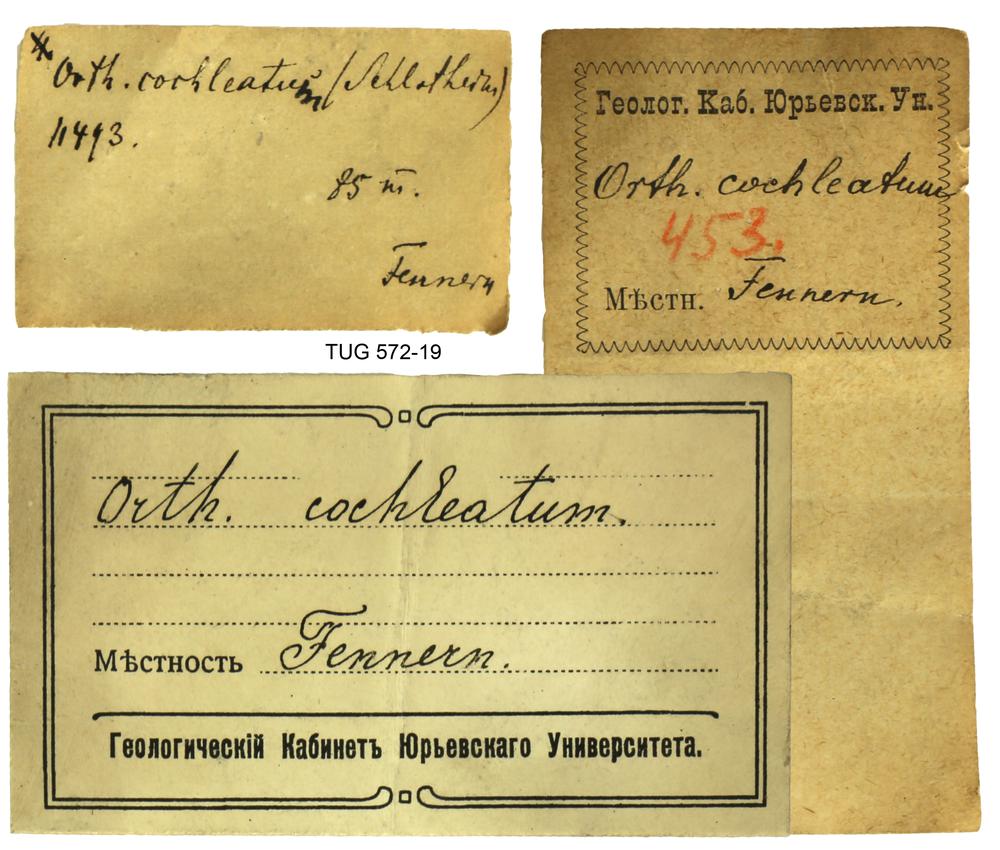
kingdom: Animalia
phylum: Mollusca
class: Cephalopoda
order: Orthocerida
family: Orthoceratidae
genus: Orthoceras
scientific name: Orthoceras
